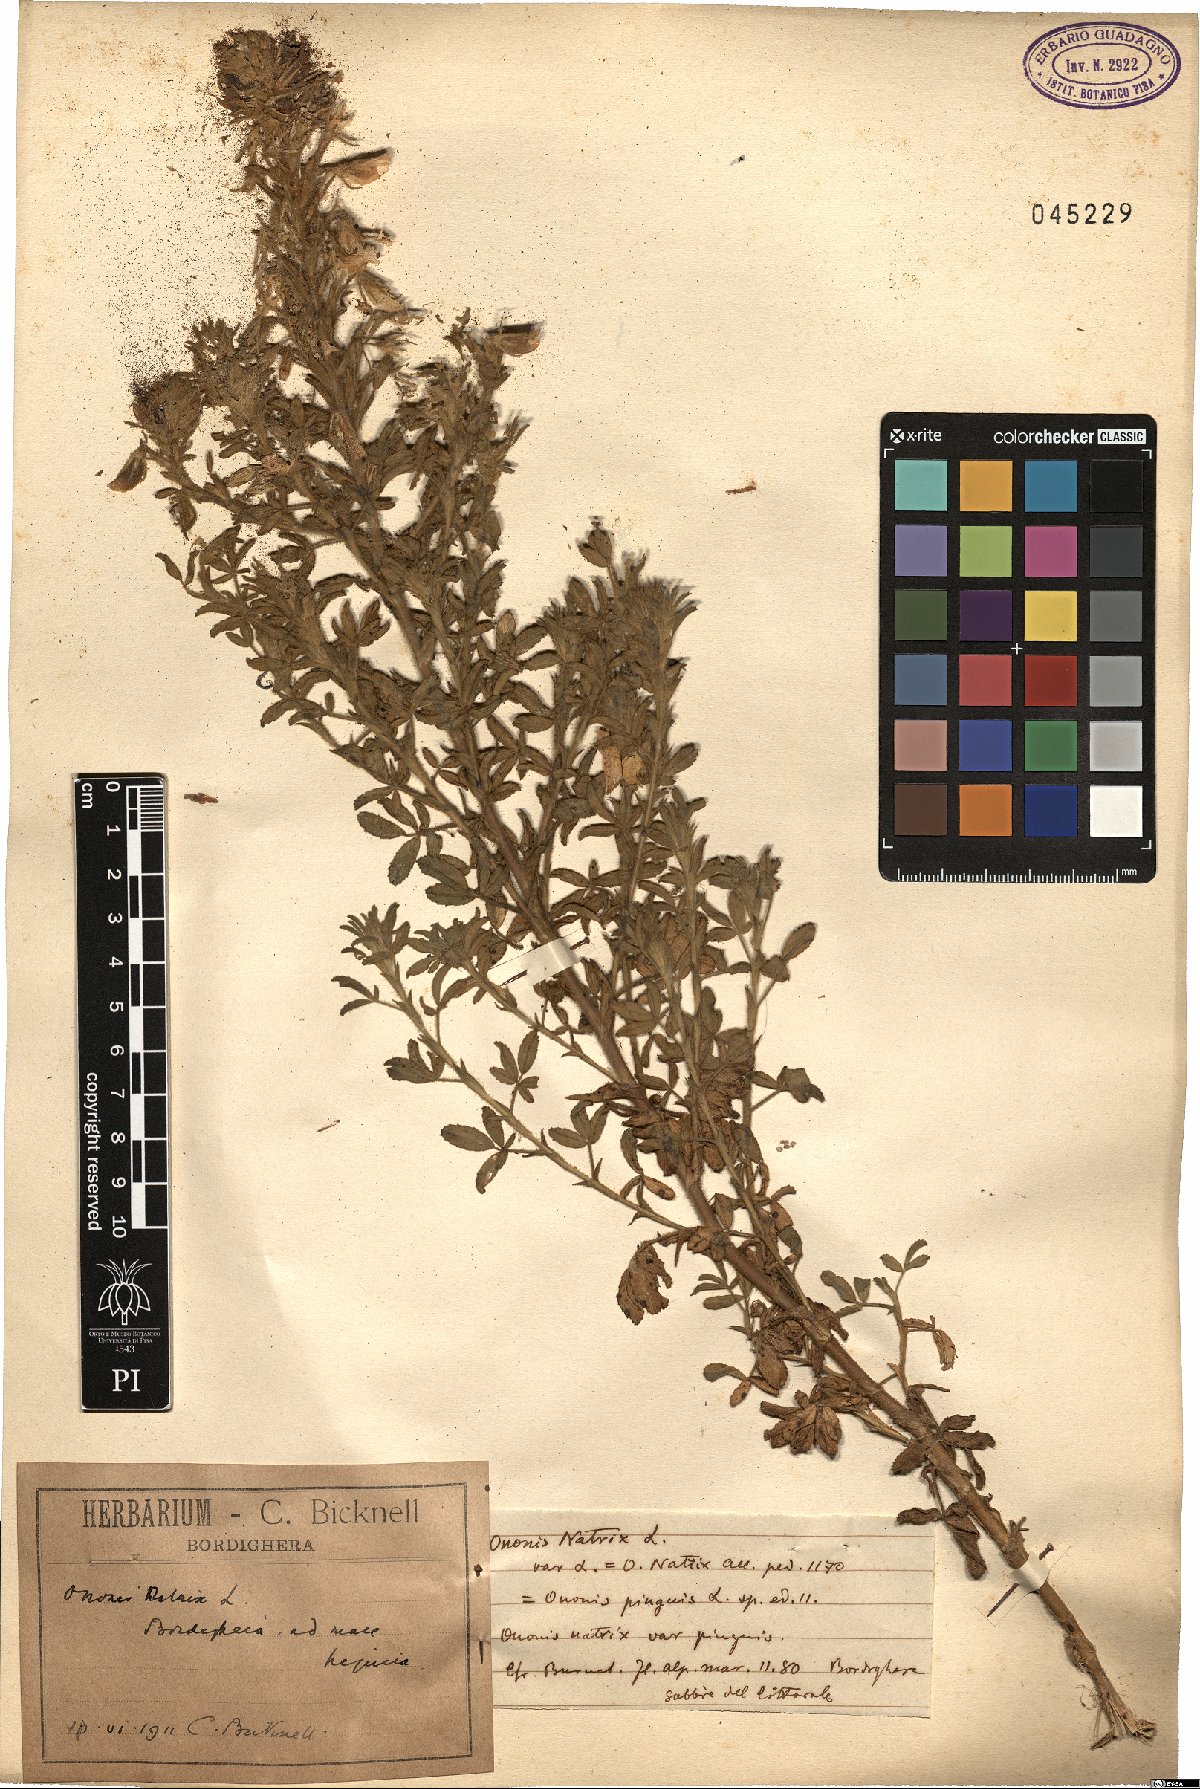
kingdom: Plantae
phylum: Tracheophyta
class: Magnoliopsida
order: Fabales
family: Fabaceae
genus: Ononis
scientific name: Ononis natrix
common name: Yellow restharrow
